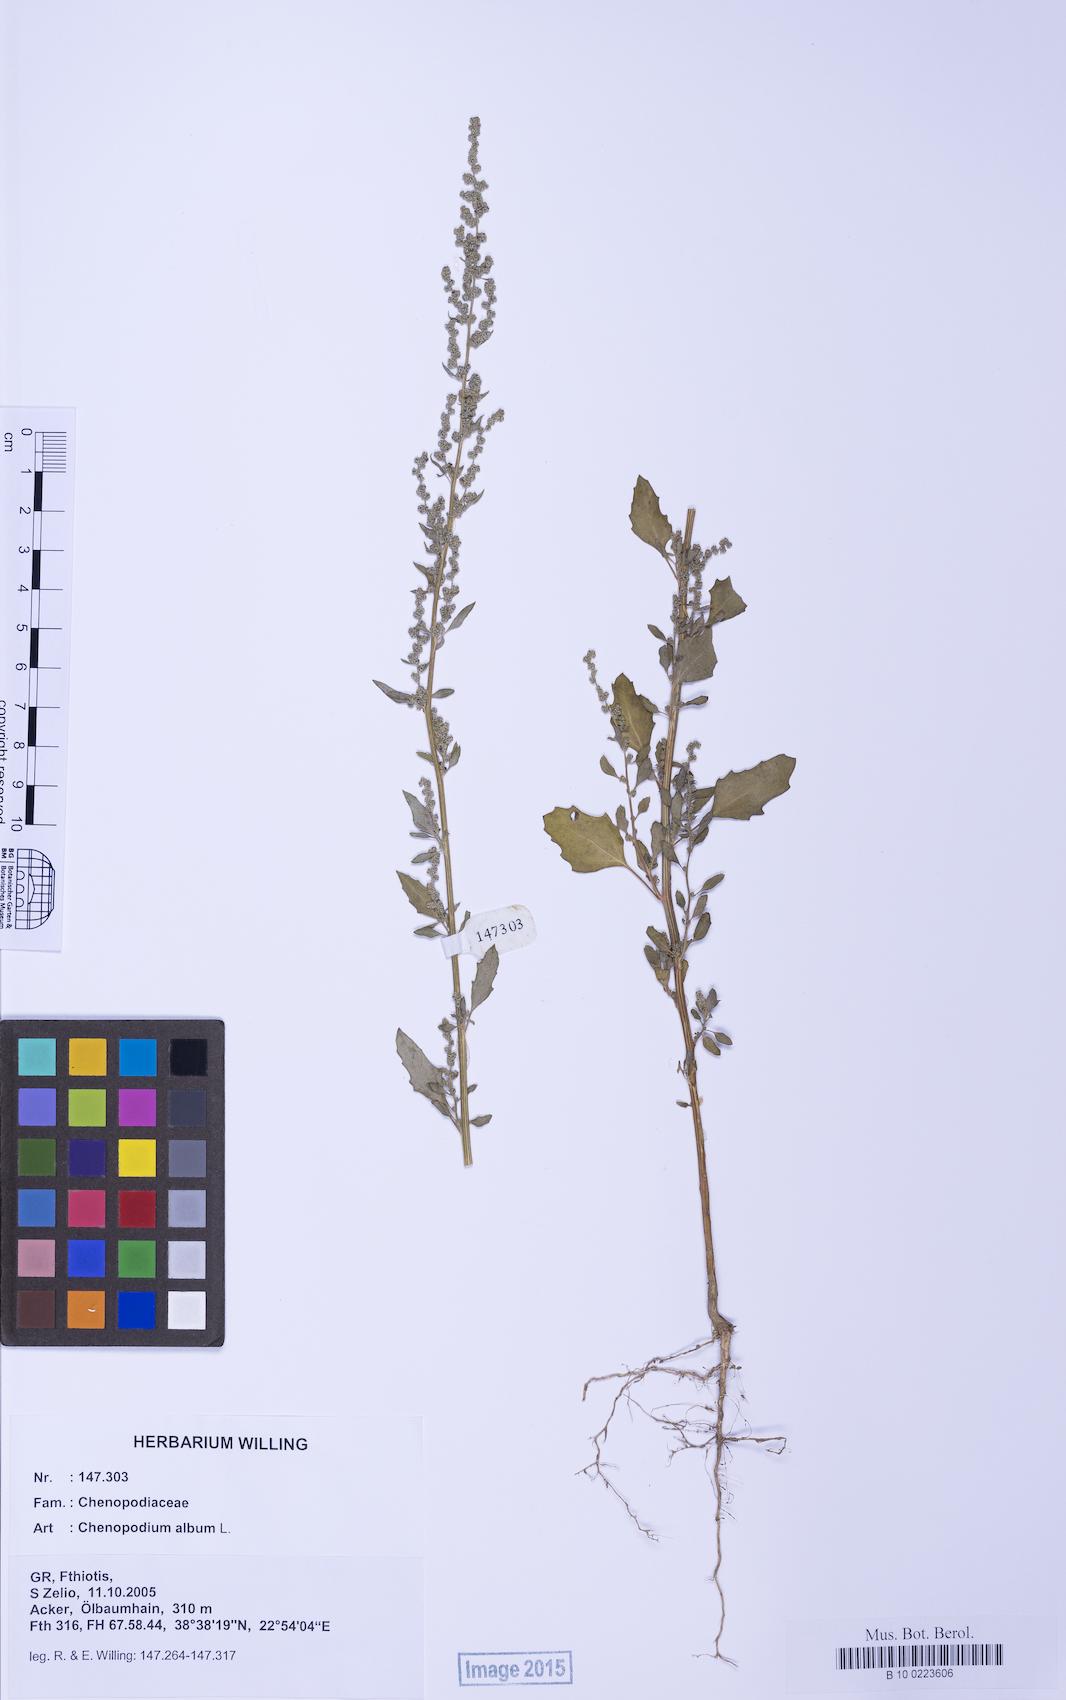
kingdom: Plantae
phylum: Tracheophyta
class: Magnoliopsida
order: Caryophyllales
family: Amaranthaceae
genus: Chenopodium
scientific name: Chenopodium album
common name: Fat-hen
